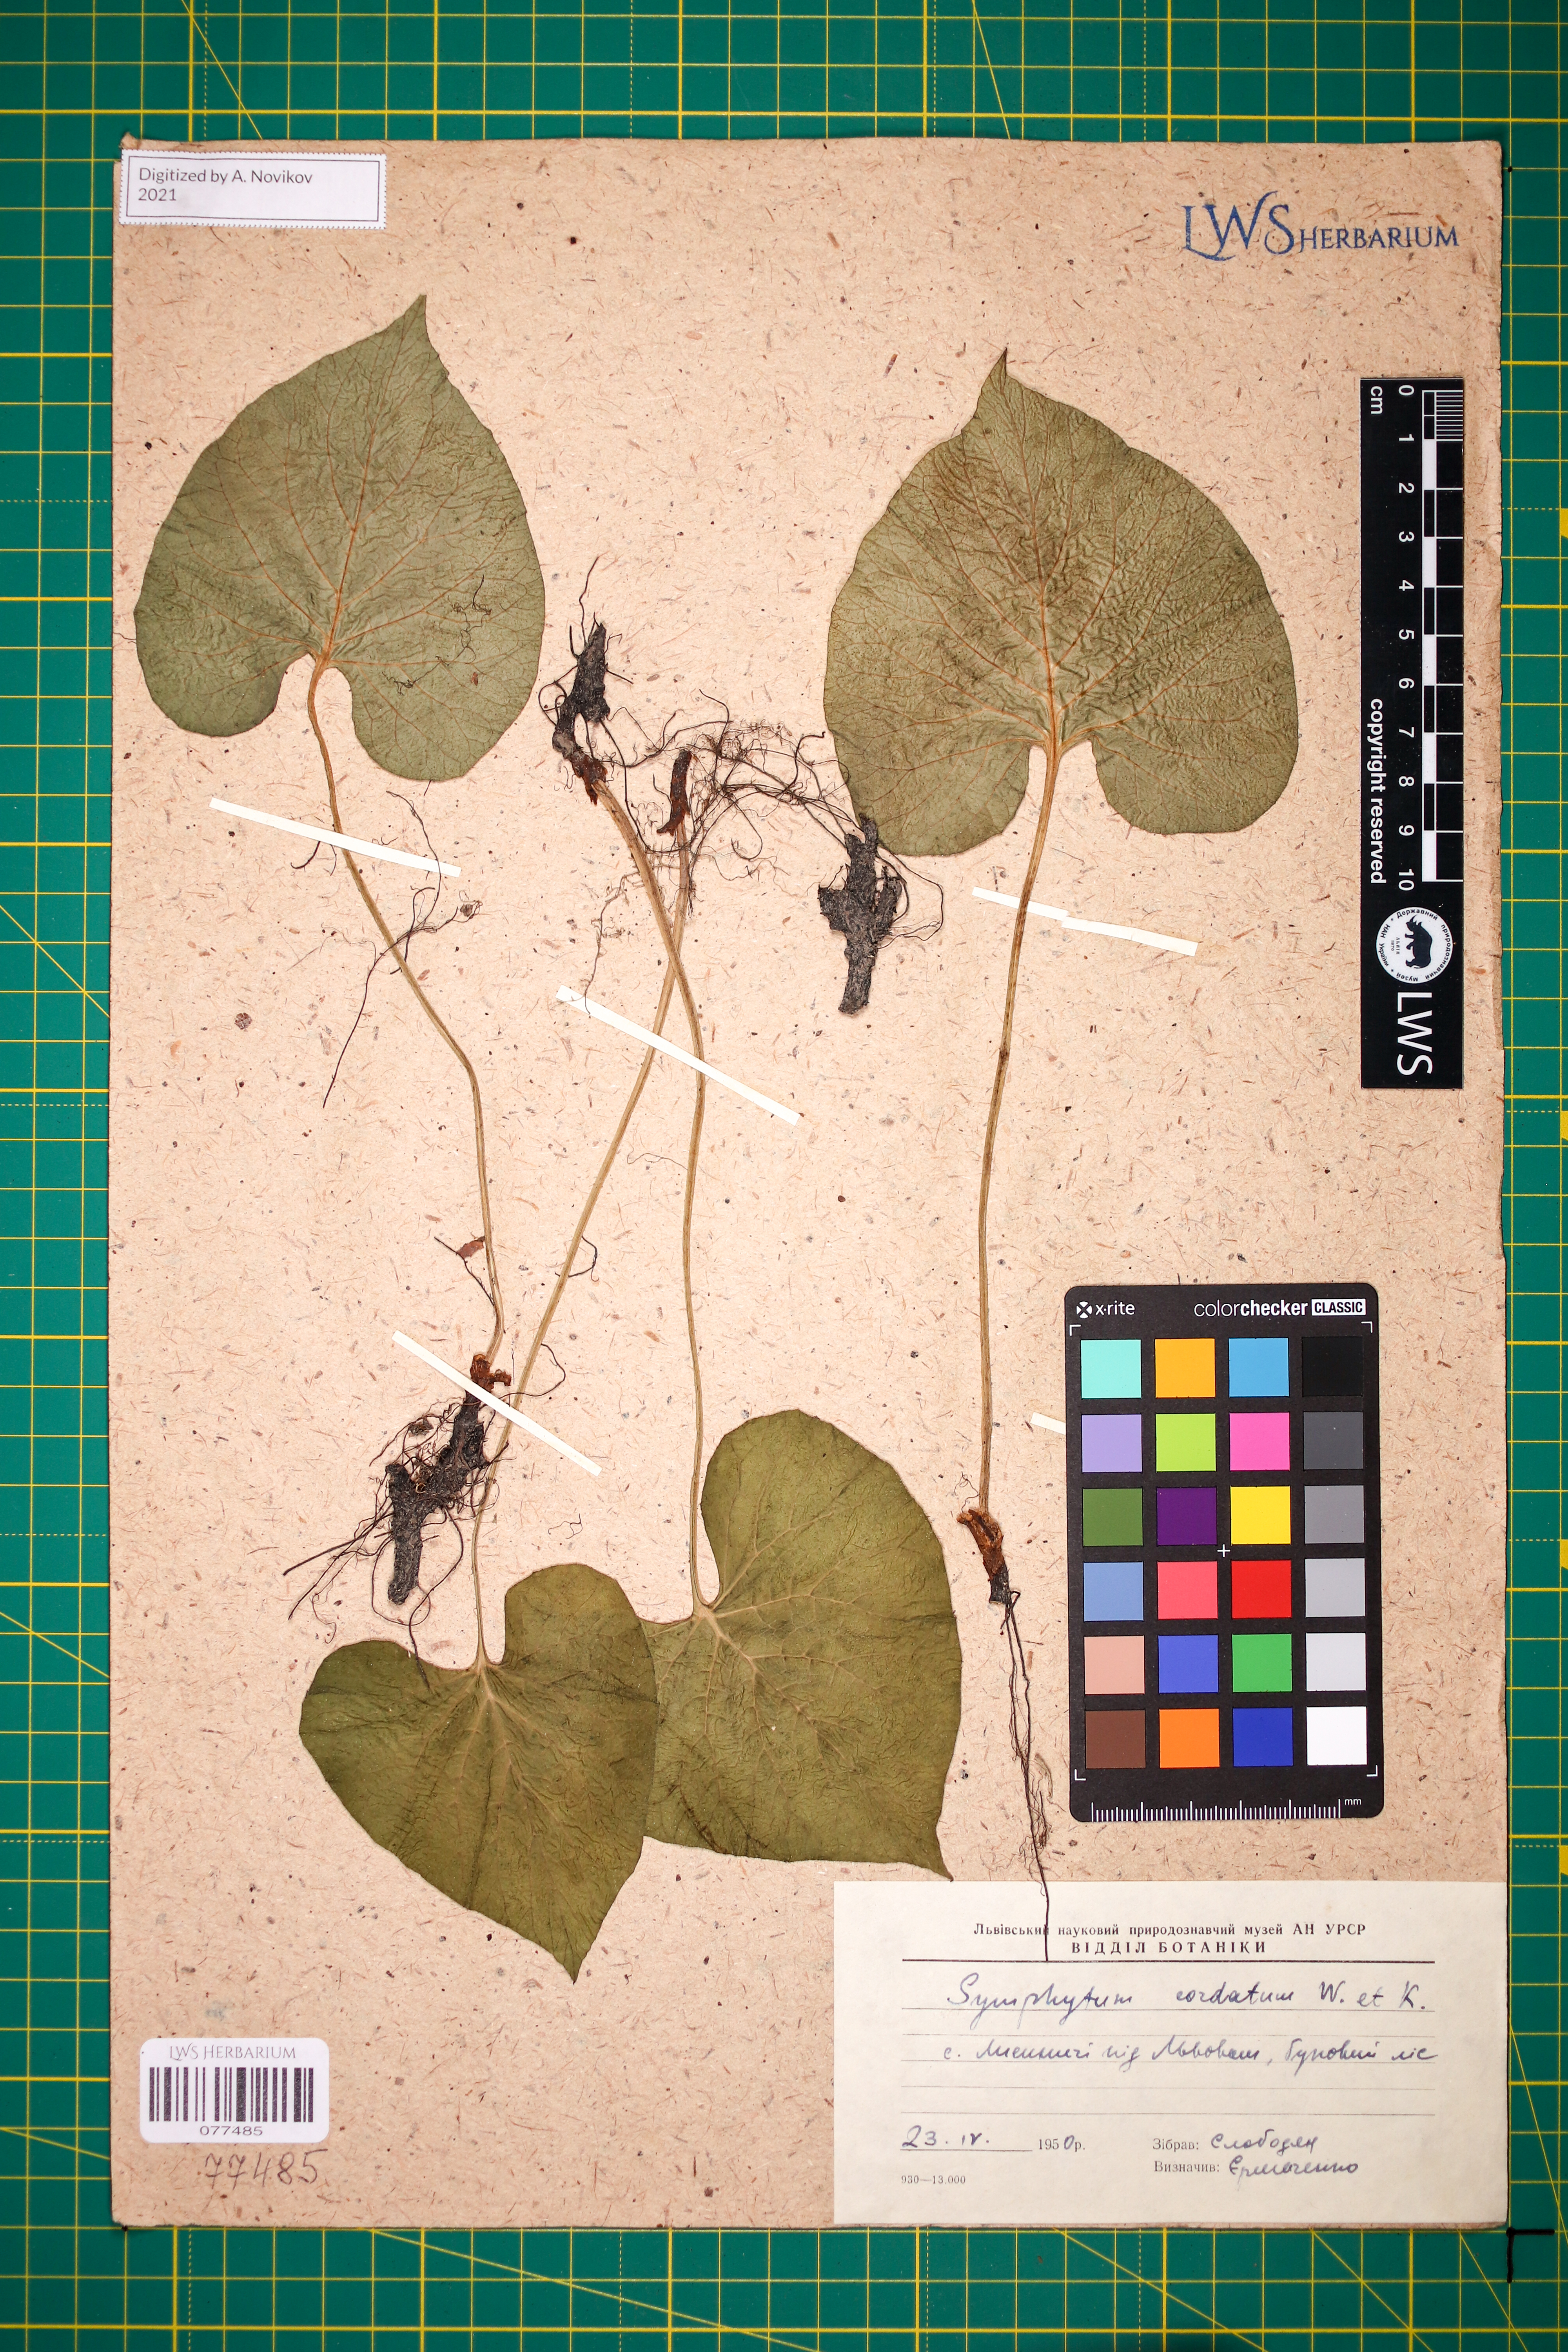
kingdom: Plantae
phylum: Tracheophyta
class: Magnoliopsida
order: Boraginales
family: Boraginaceae
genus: Symphytum
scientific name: Symphytum cordatum
